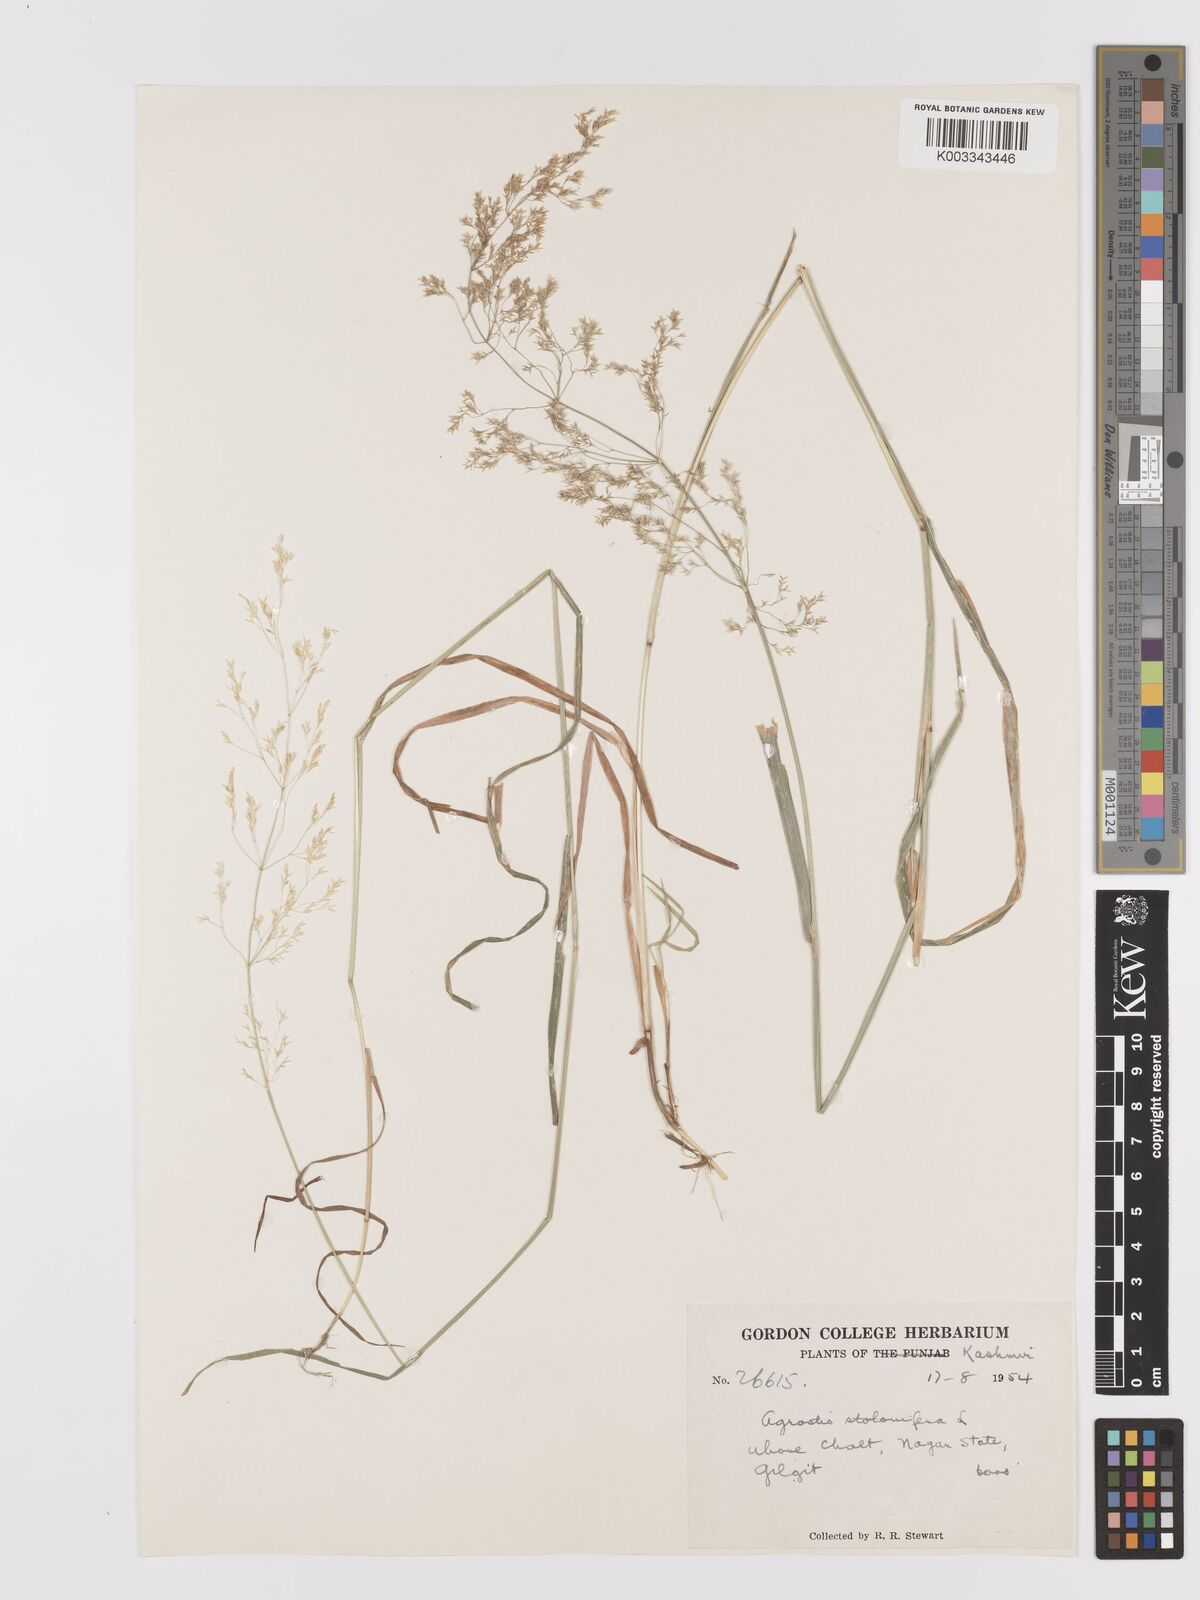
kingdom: Plantae
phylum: Tracheophyta
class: Liliopsida
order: Poales
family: Poaceae
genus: Agrostis
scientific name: Agrostis stolonifera
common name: Creeping bentgrass
